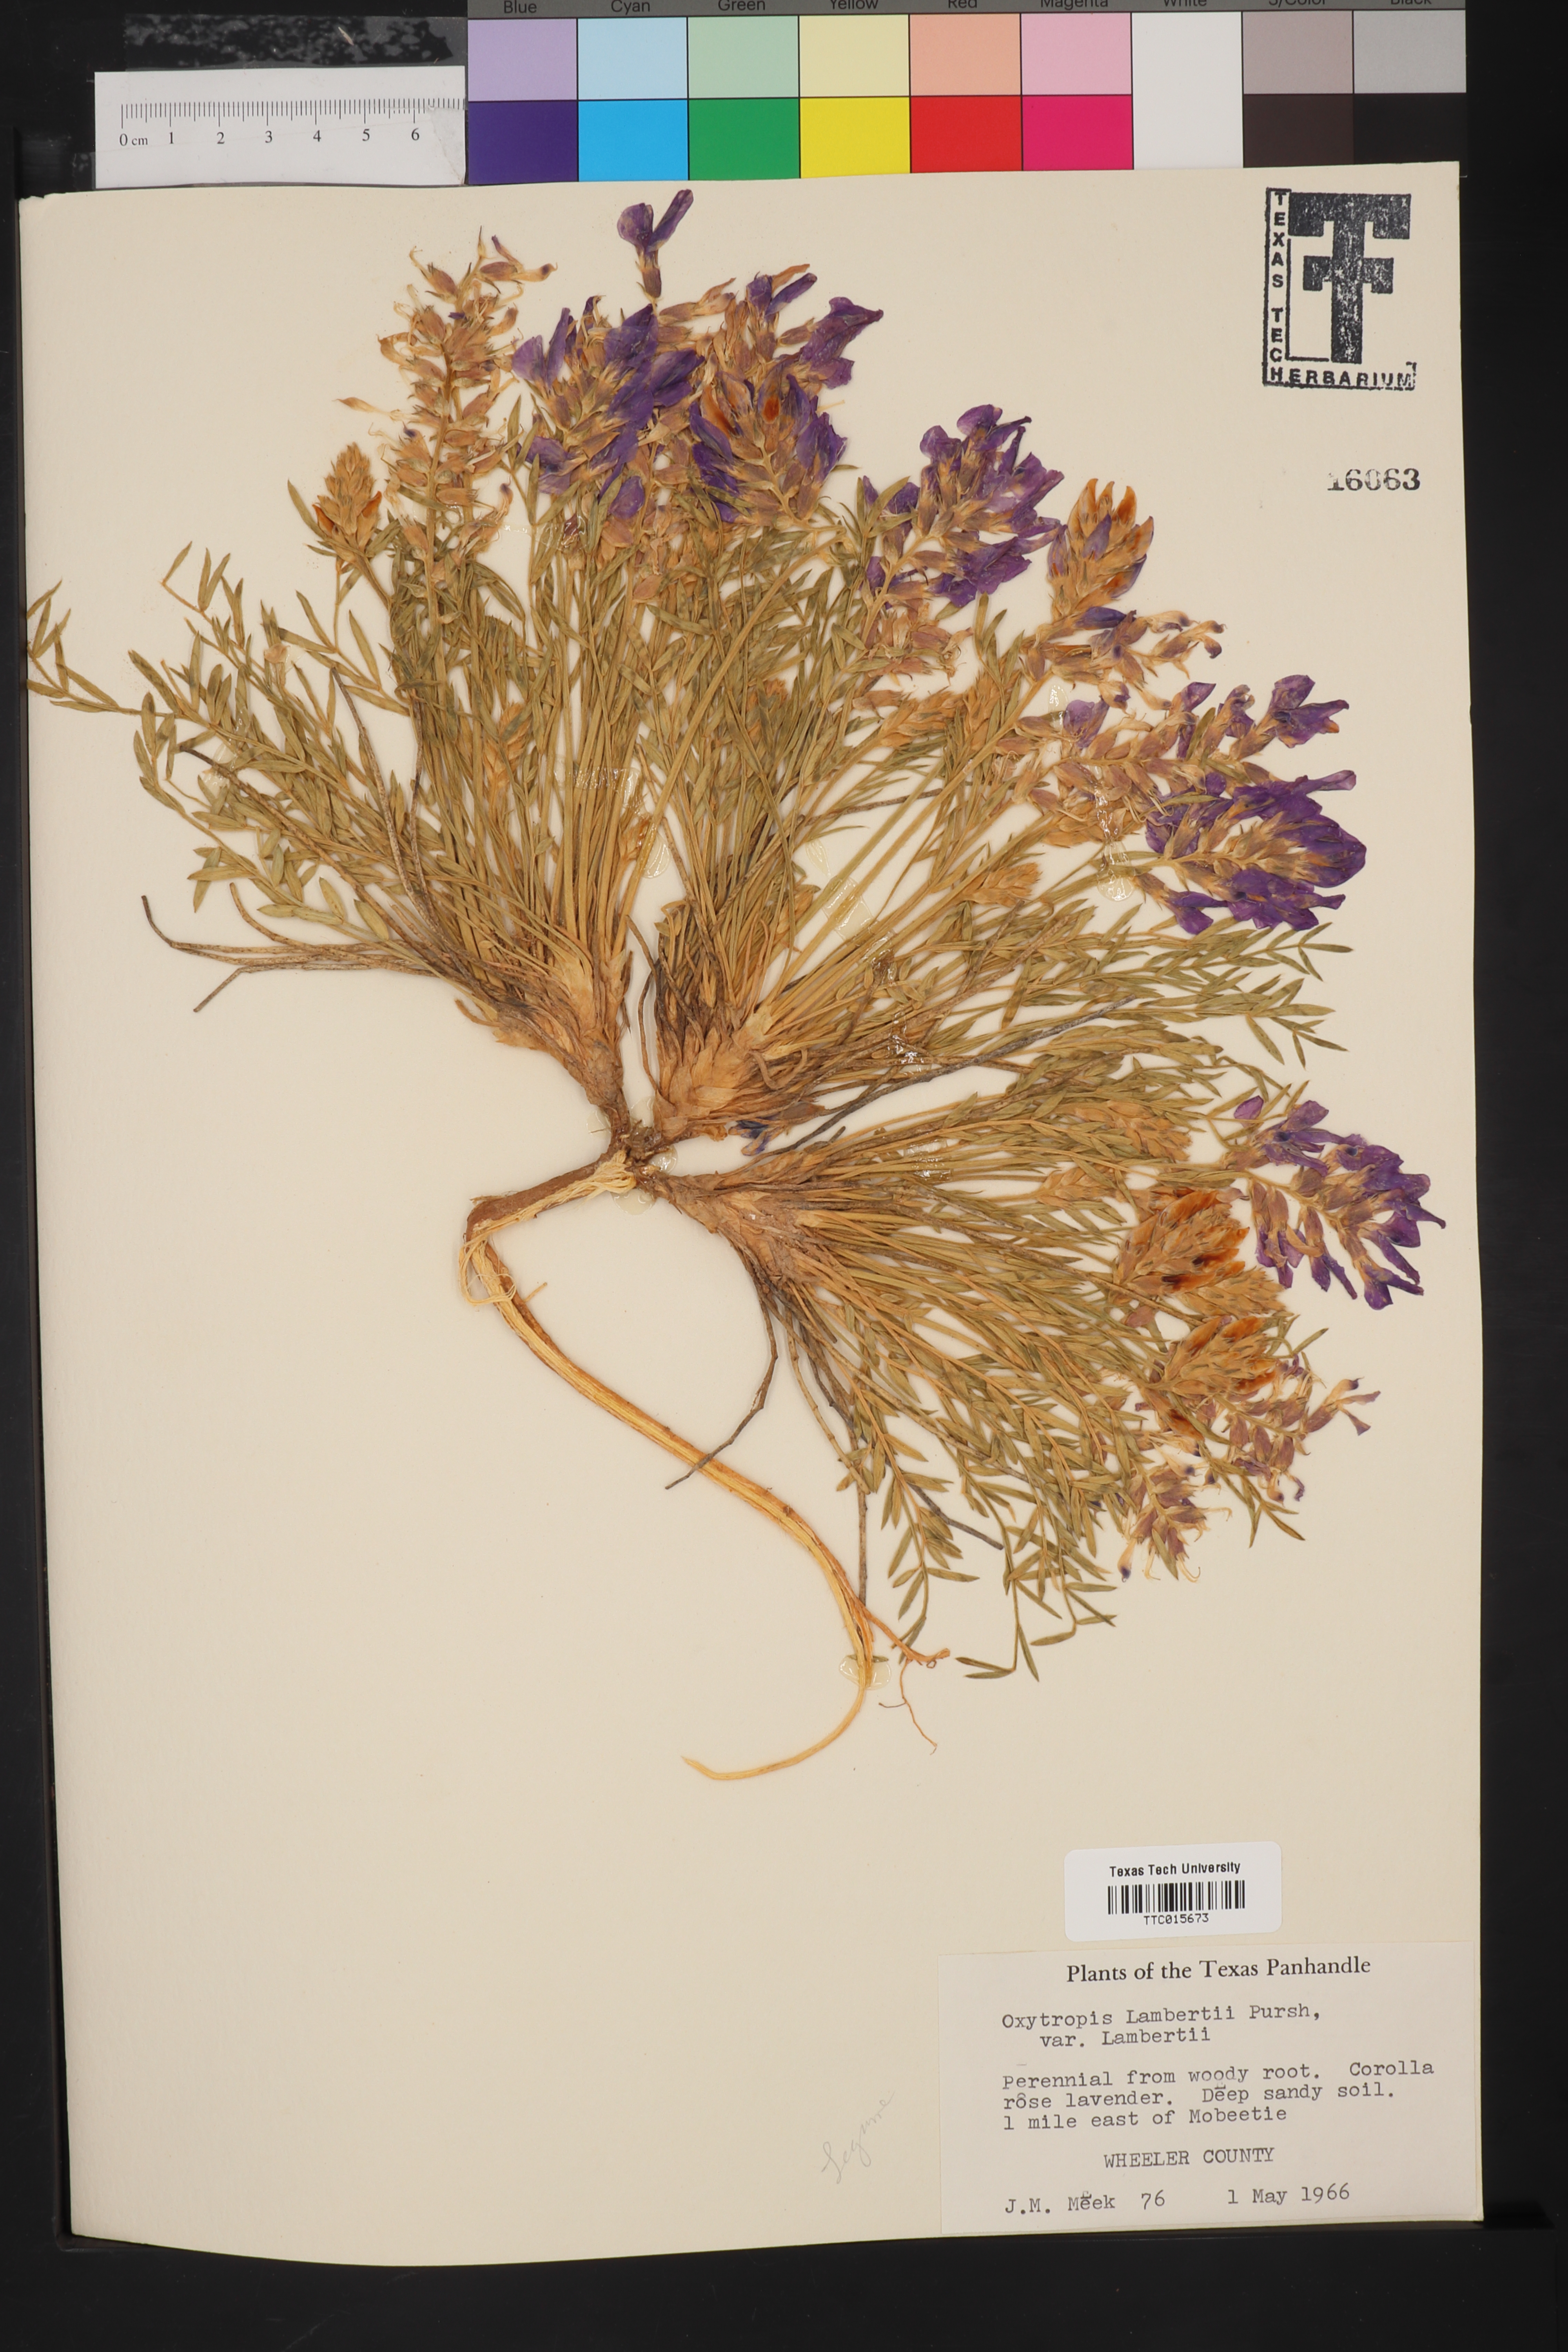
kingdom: Plantae
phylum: Tracheophyta
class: Magnoliopsida
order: Fabales
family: Fabaceae
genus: Oxytropis
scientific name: Oxytropis lambertii
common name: Purple locoweed
